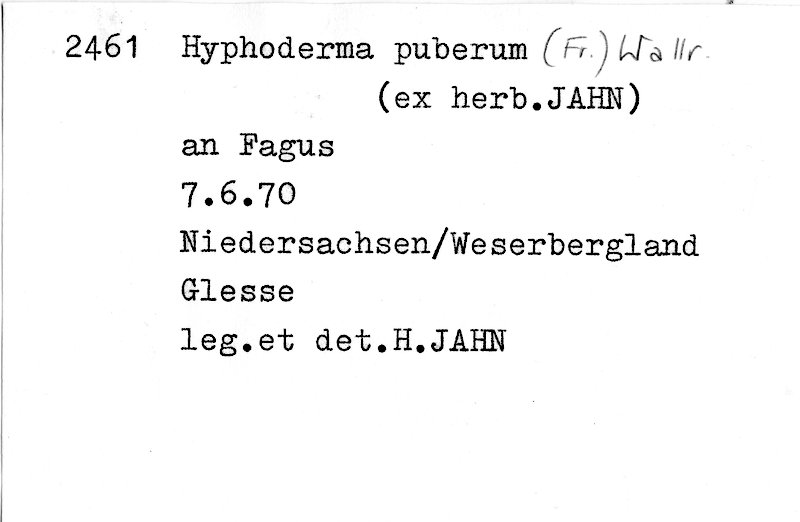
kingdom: Plantae
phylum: Tracheophyta
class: Magnoliopsida
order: Fagales
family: Fagaceae
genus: Fagus
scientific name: Fagus sylvatica
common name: Beech
